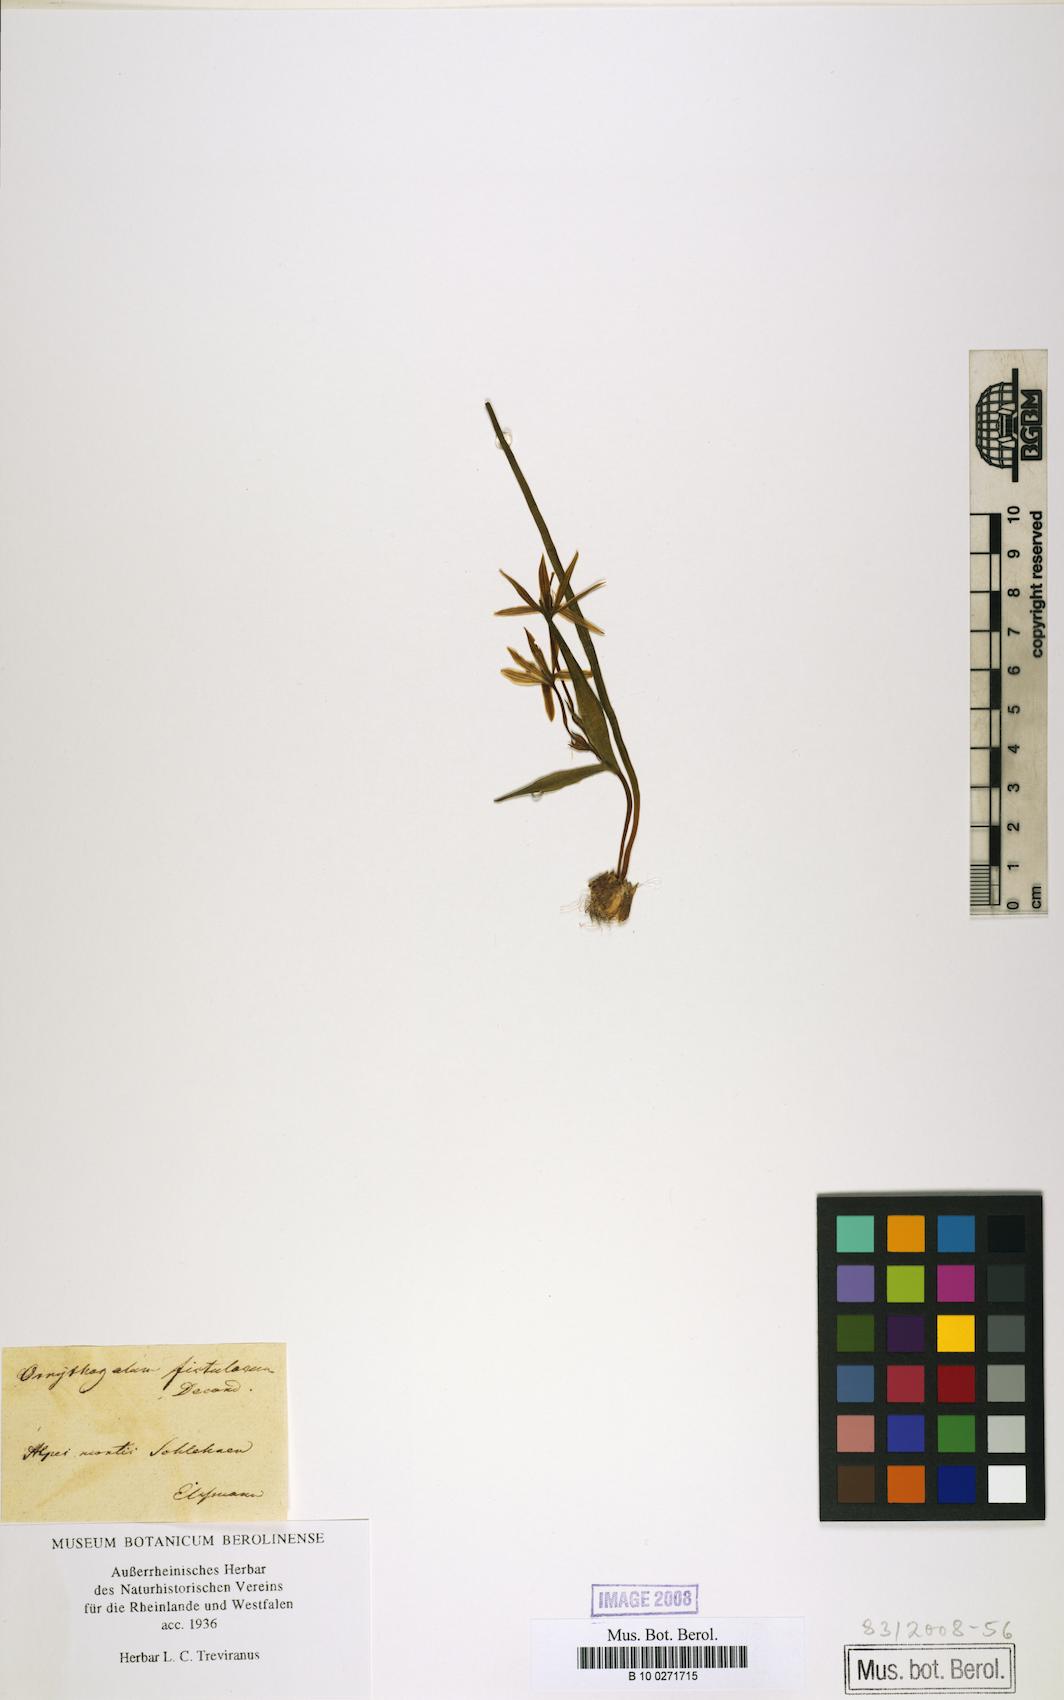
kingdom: Plantae
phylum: Tracheophyta
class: Liliopsida
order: Liliales
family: Liliaceae
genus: Gagea
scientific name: Gagea bohemica
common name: Early star-of-bethlehem
